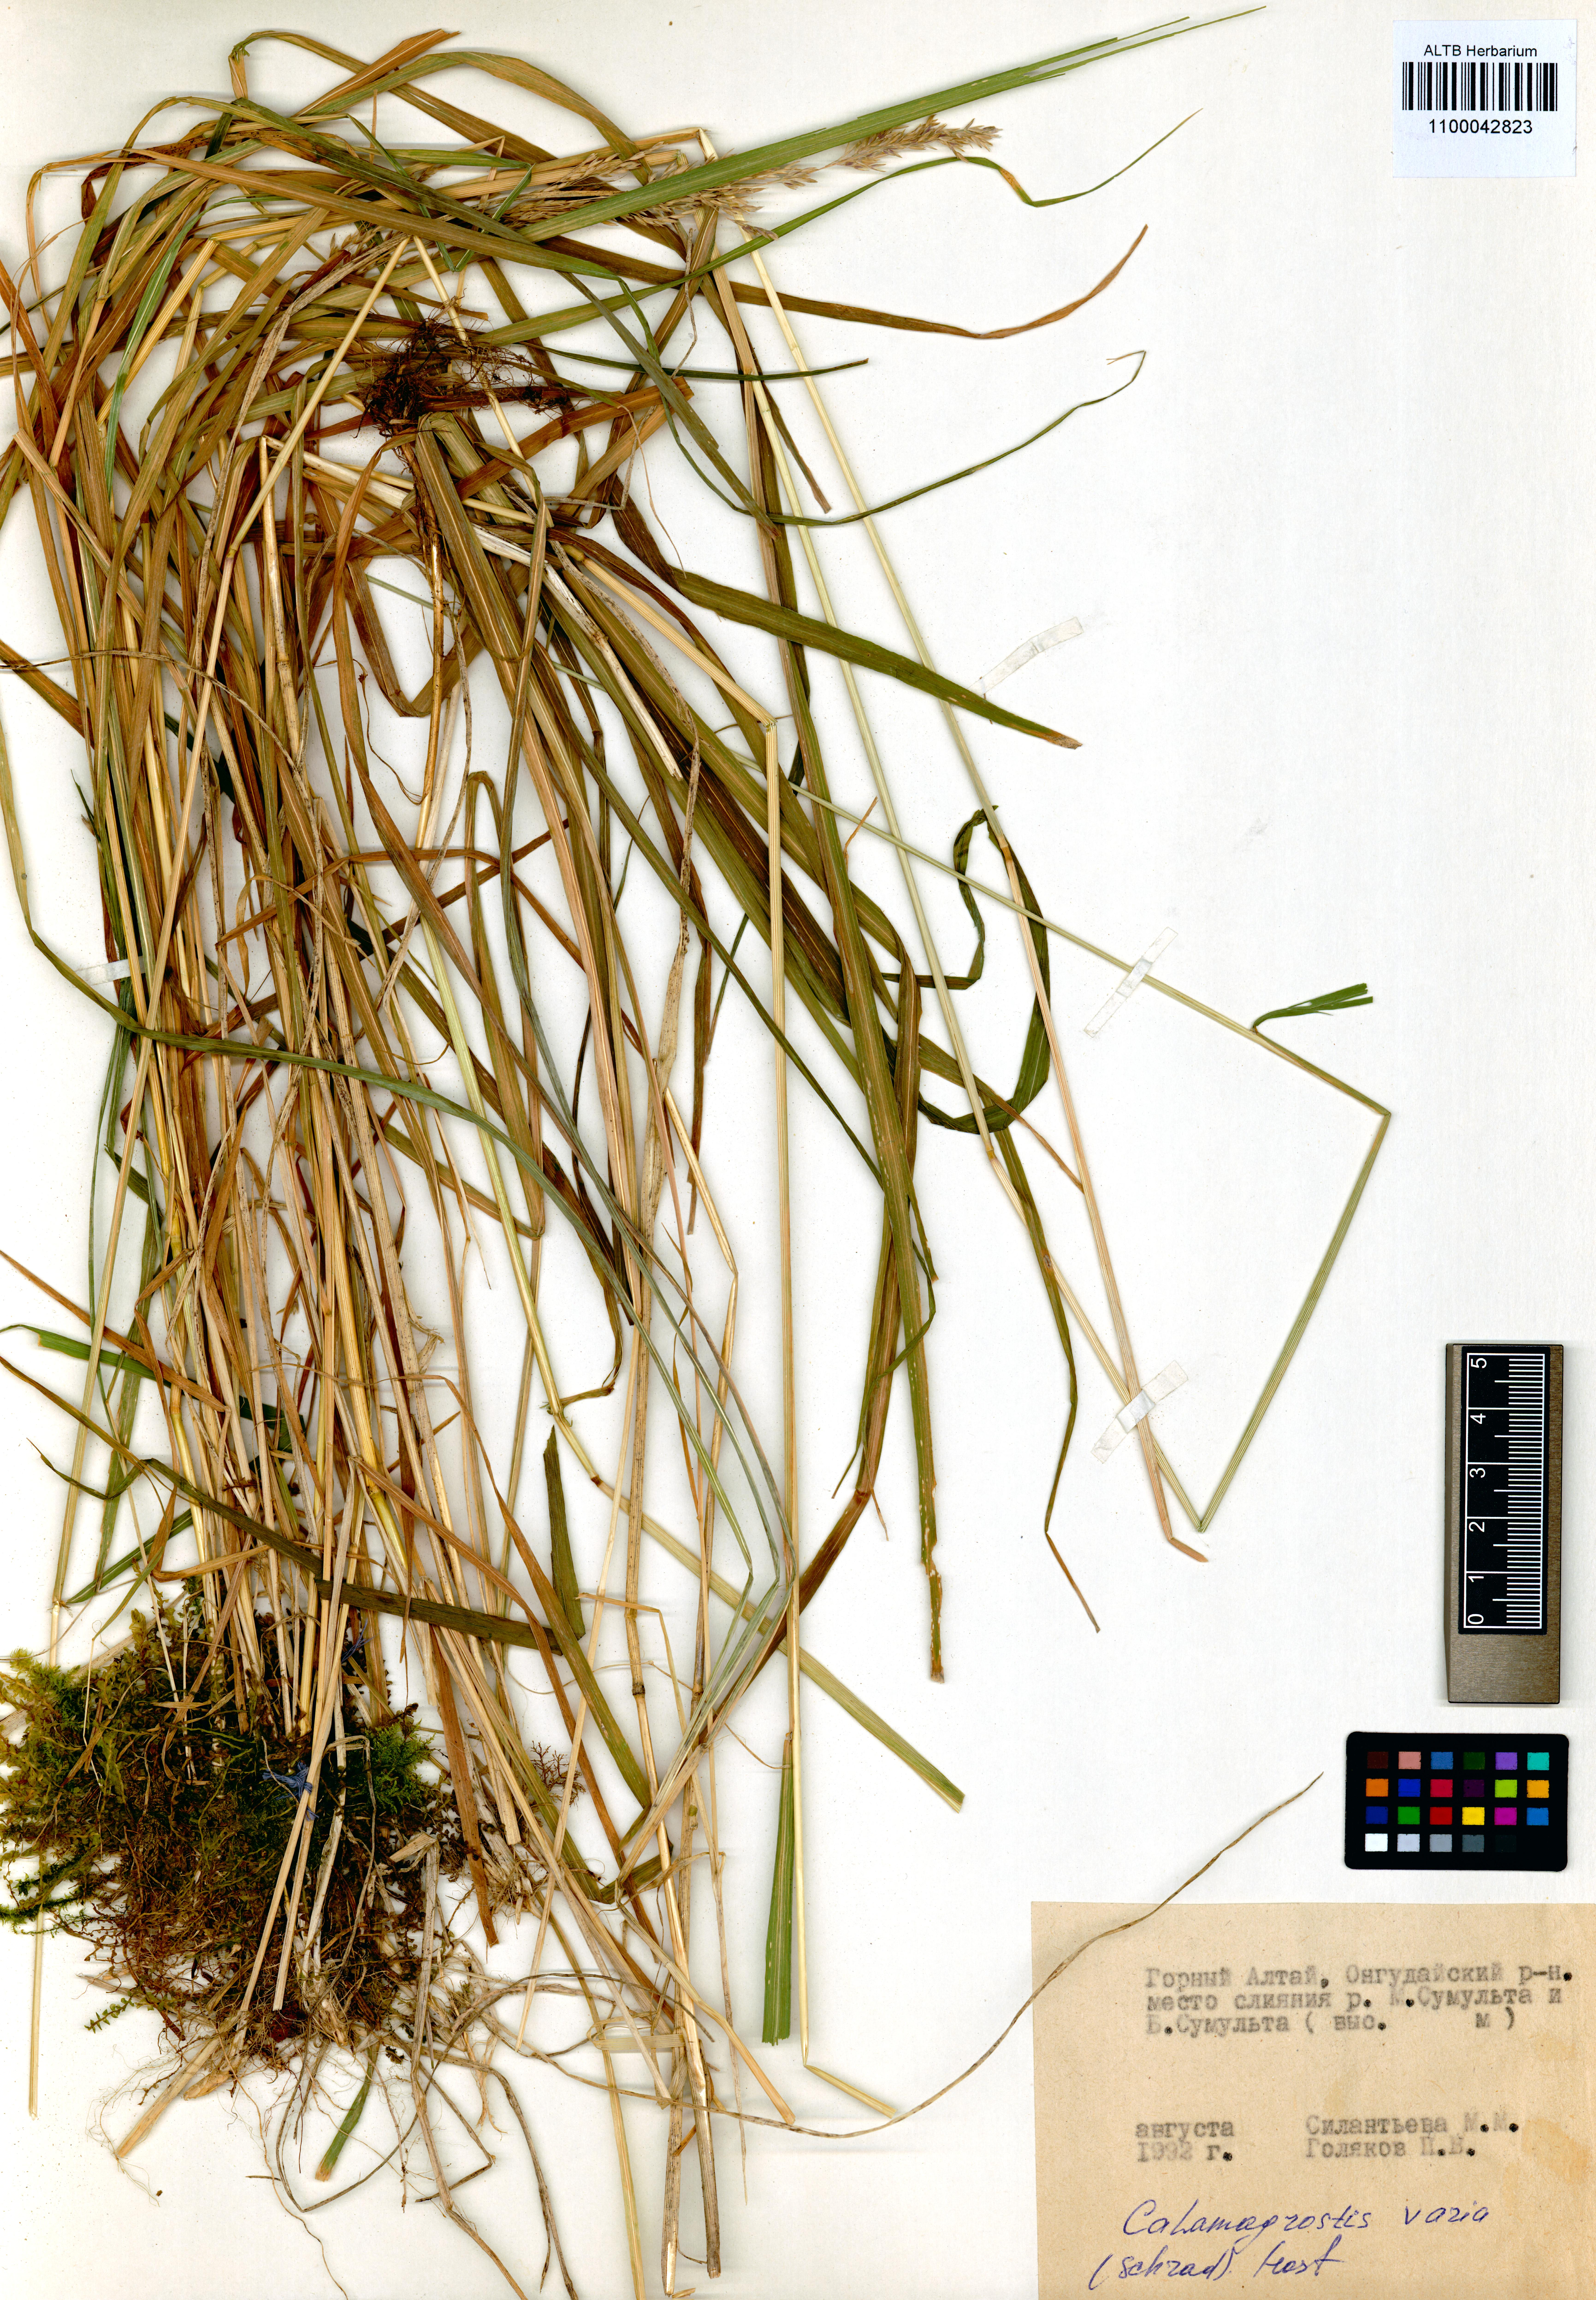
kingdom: Plantae
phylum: Tracheophyta
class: Liliopsida
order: Poales
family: Poaceae
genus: Calamagrostis
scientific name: Calamagrostis pavlovii
